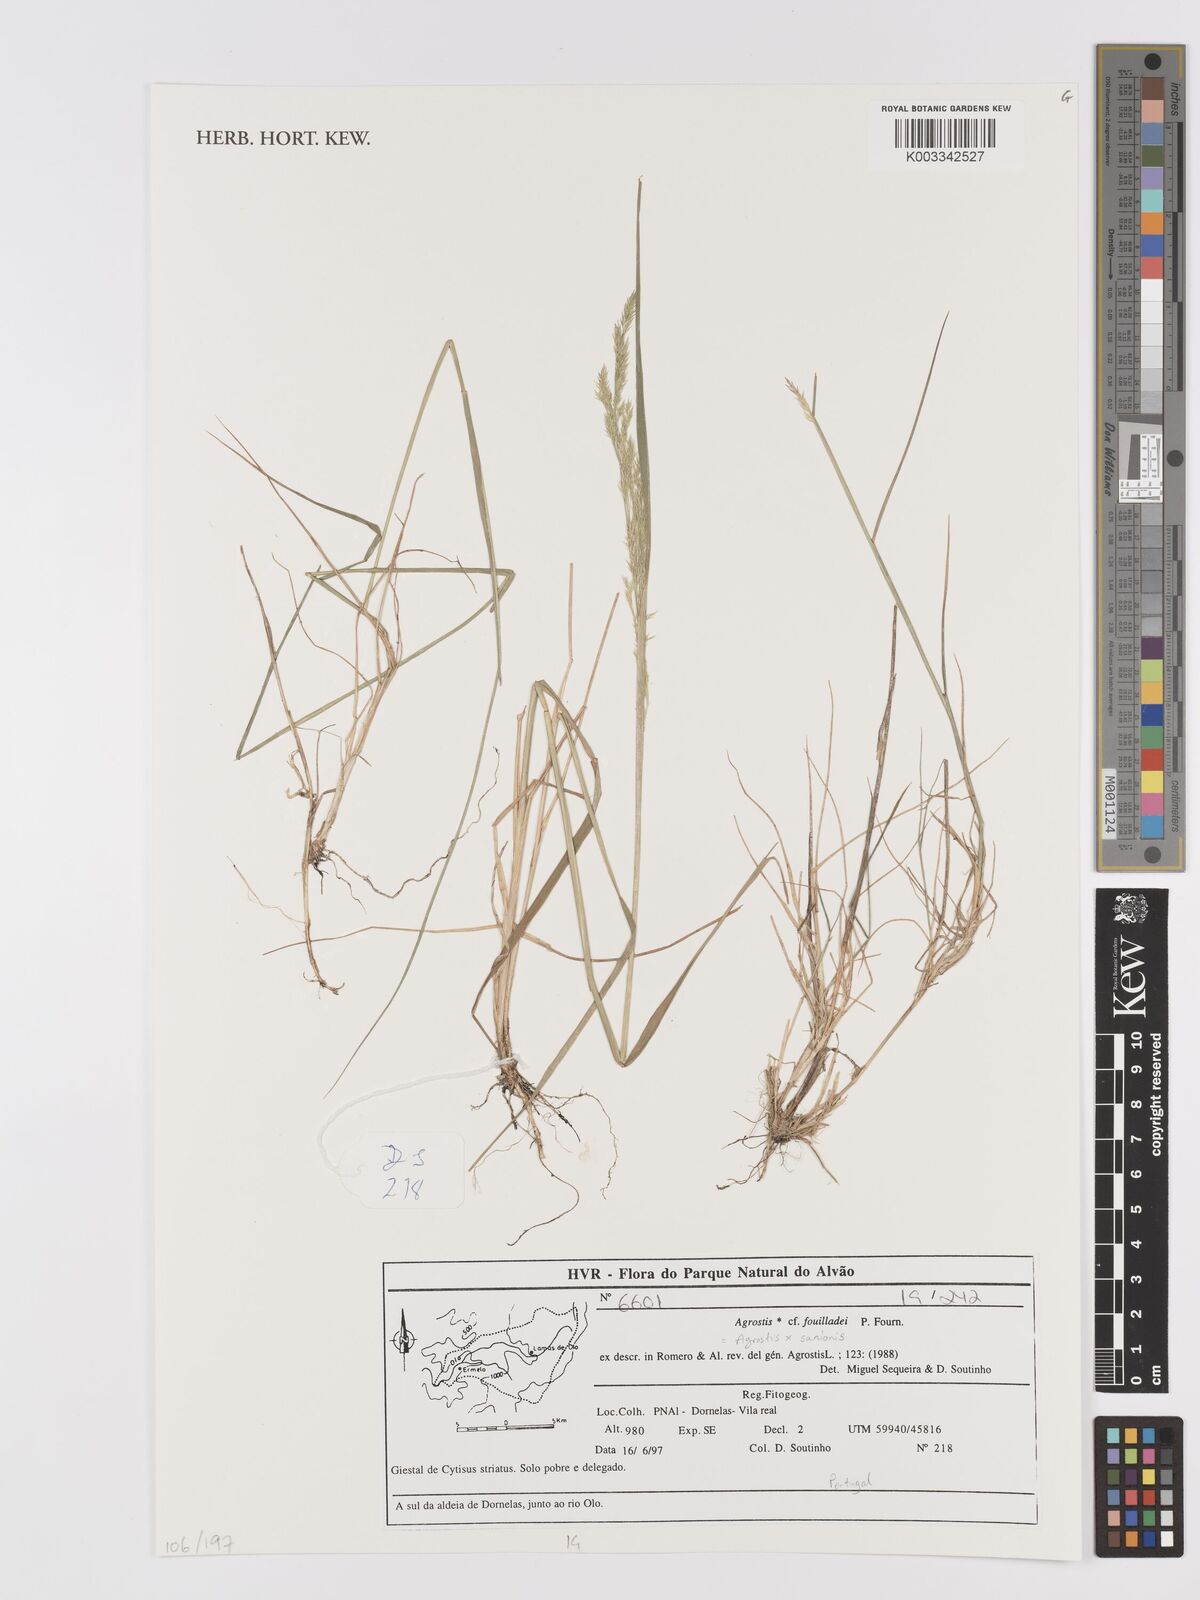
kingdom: Plantae
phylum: Tracheophyta
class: Liliopsida
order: Poales
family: Poaceae
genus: Agrostis
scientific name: Agrostis sanionis
